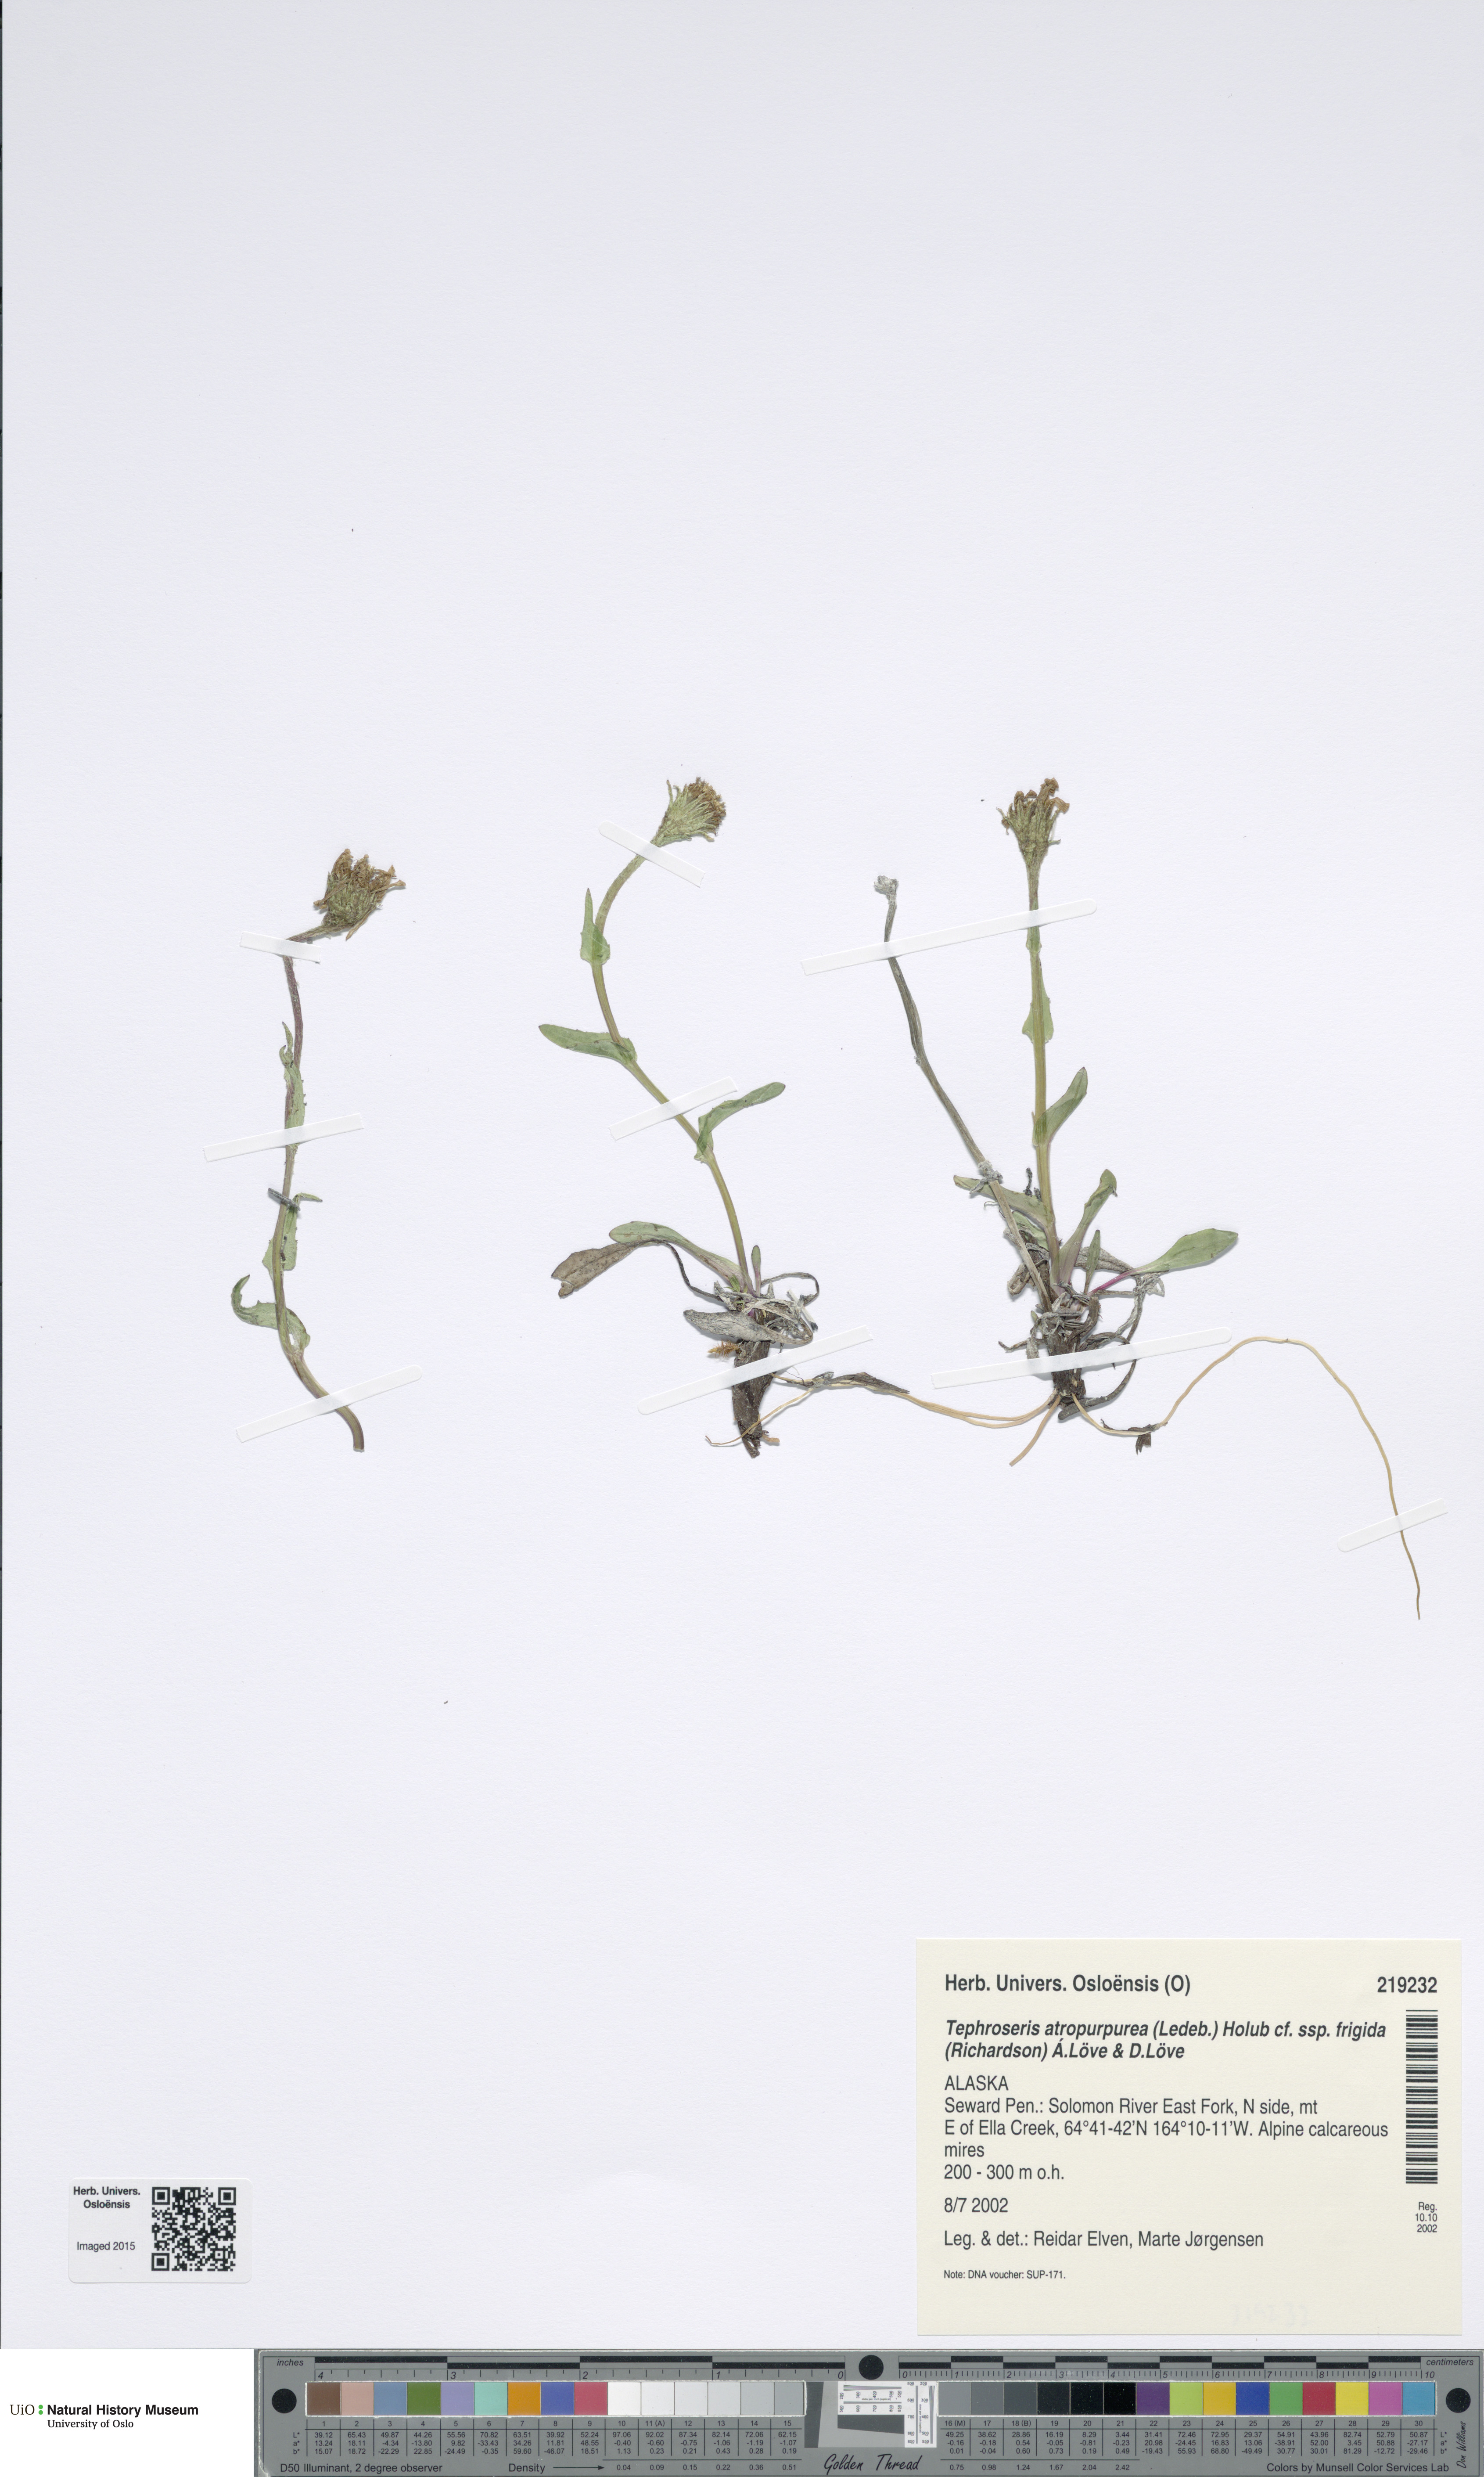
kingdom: Plantae
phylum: Tracheophyta
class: Magnoliopsida
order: Asterales
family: Asteraceae
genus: Tephroseris
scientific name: Tephroseris kjellmanii
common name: Kjellman's groundsel
